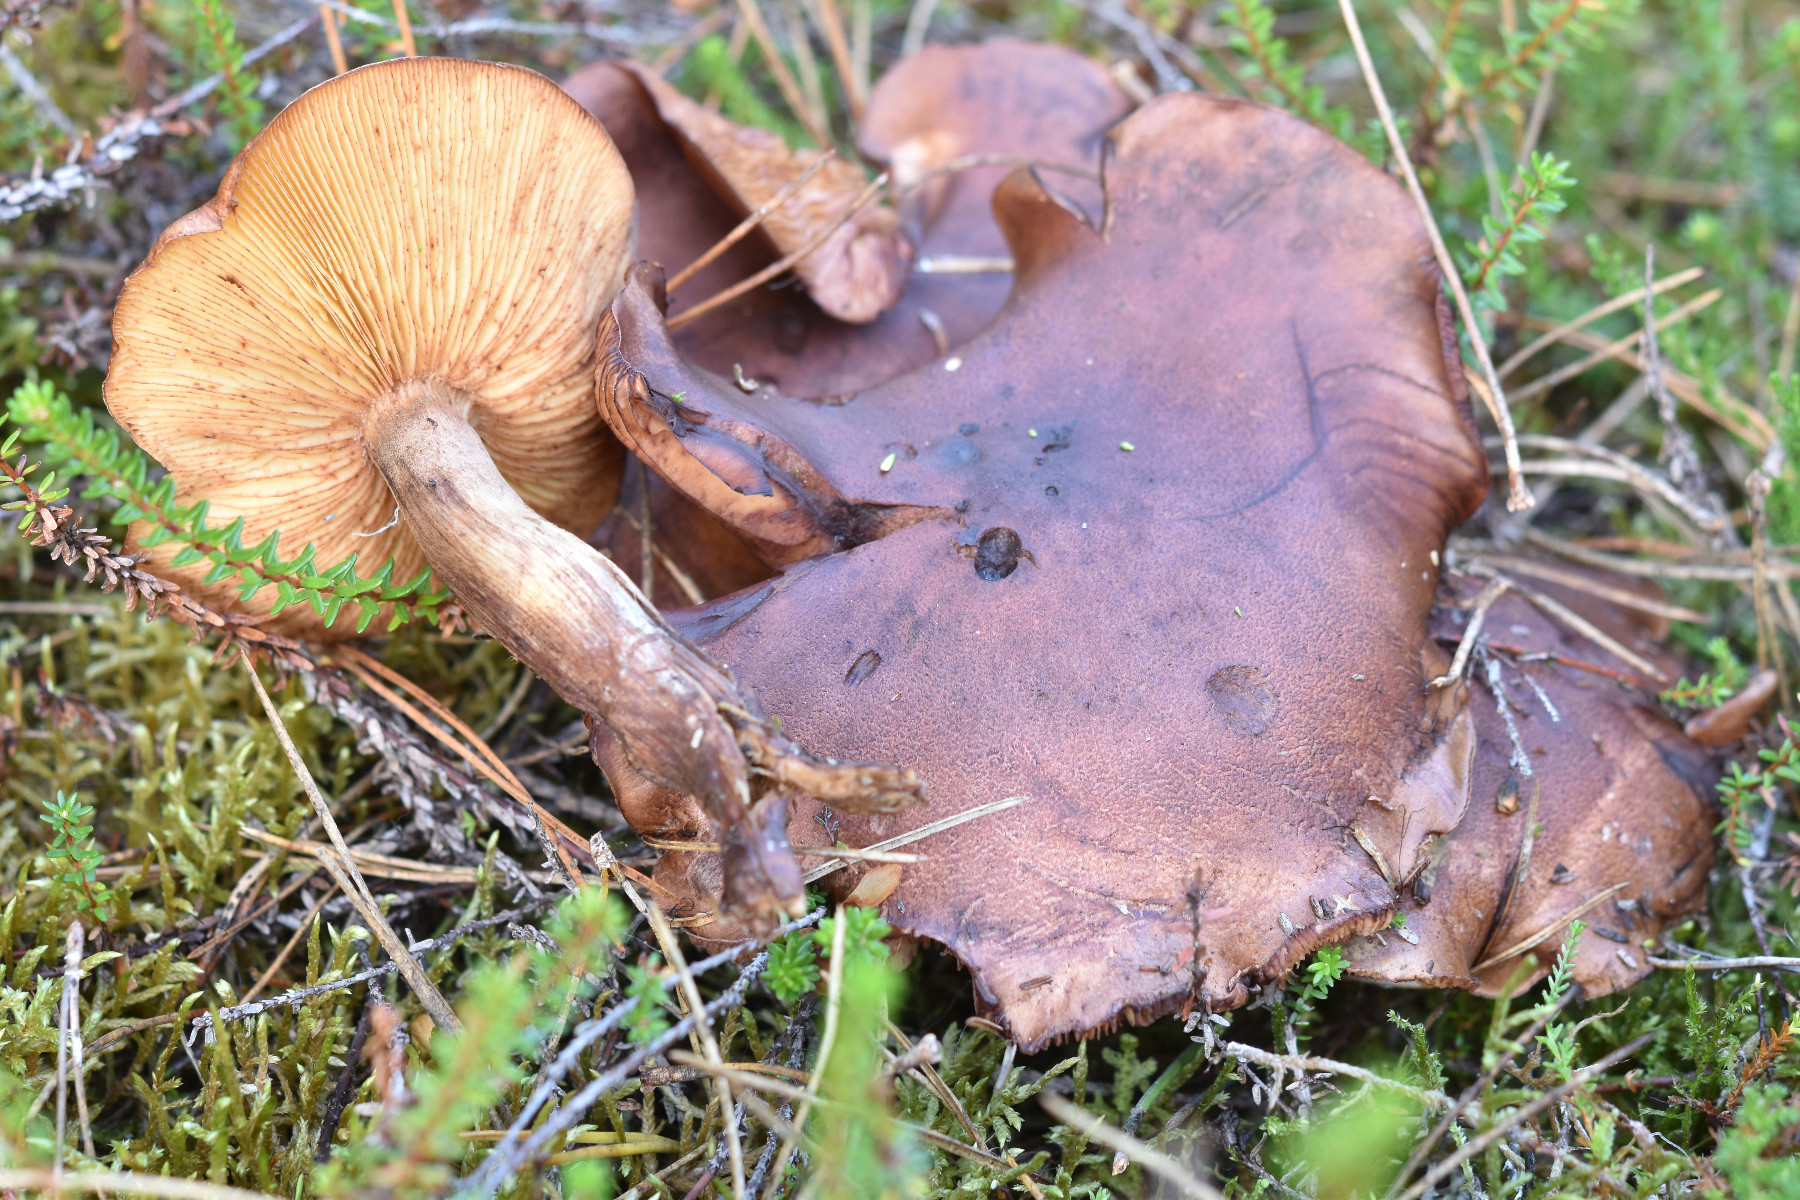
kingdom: Fungi
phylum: Basidiomycota
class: Agaricomycetes
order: Agaricales
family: Tricholomataceae
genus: Tricholoma
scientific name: Tricholoma fulvum
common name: birke-ridderhat
